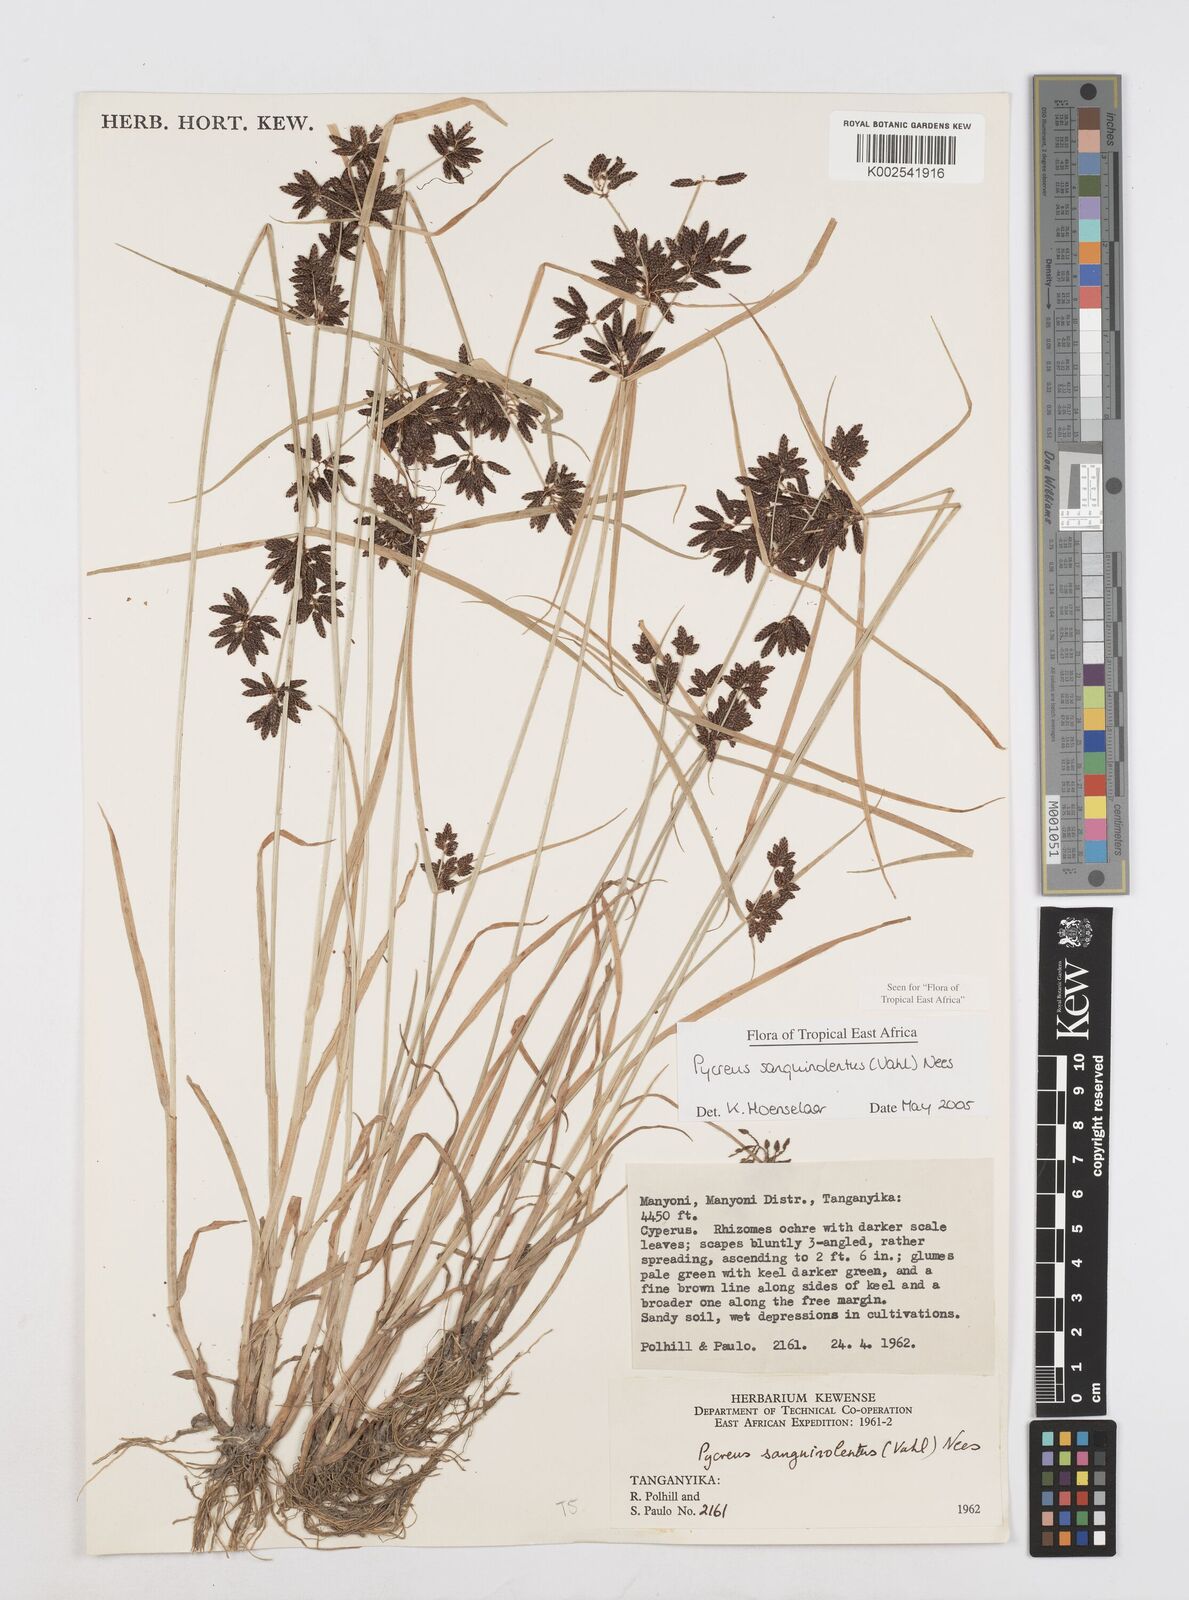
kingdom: Plantae
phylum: Tracheophyta
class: Liliopsida
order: Poales
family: Cyperaceae
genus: Cyperus
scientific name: Cyperus sanguinolentus
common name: Purpleglume flatsedge
